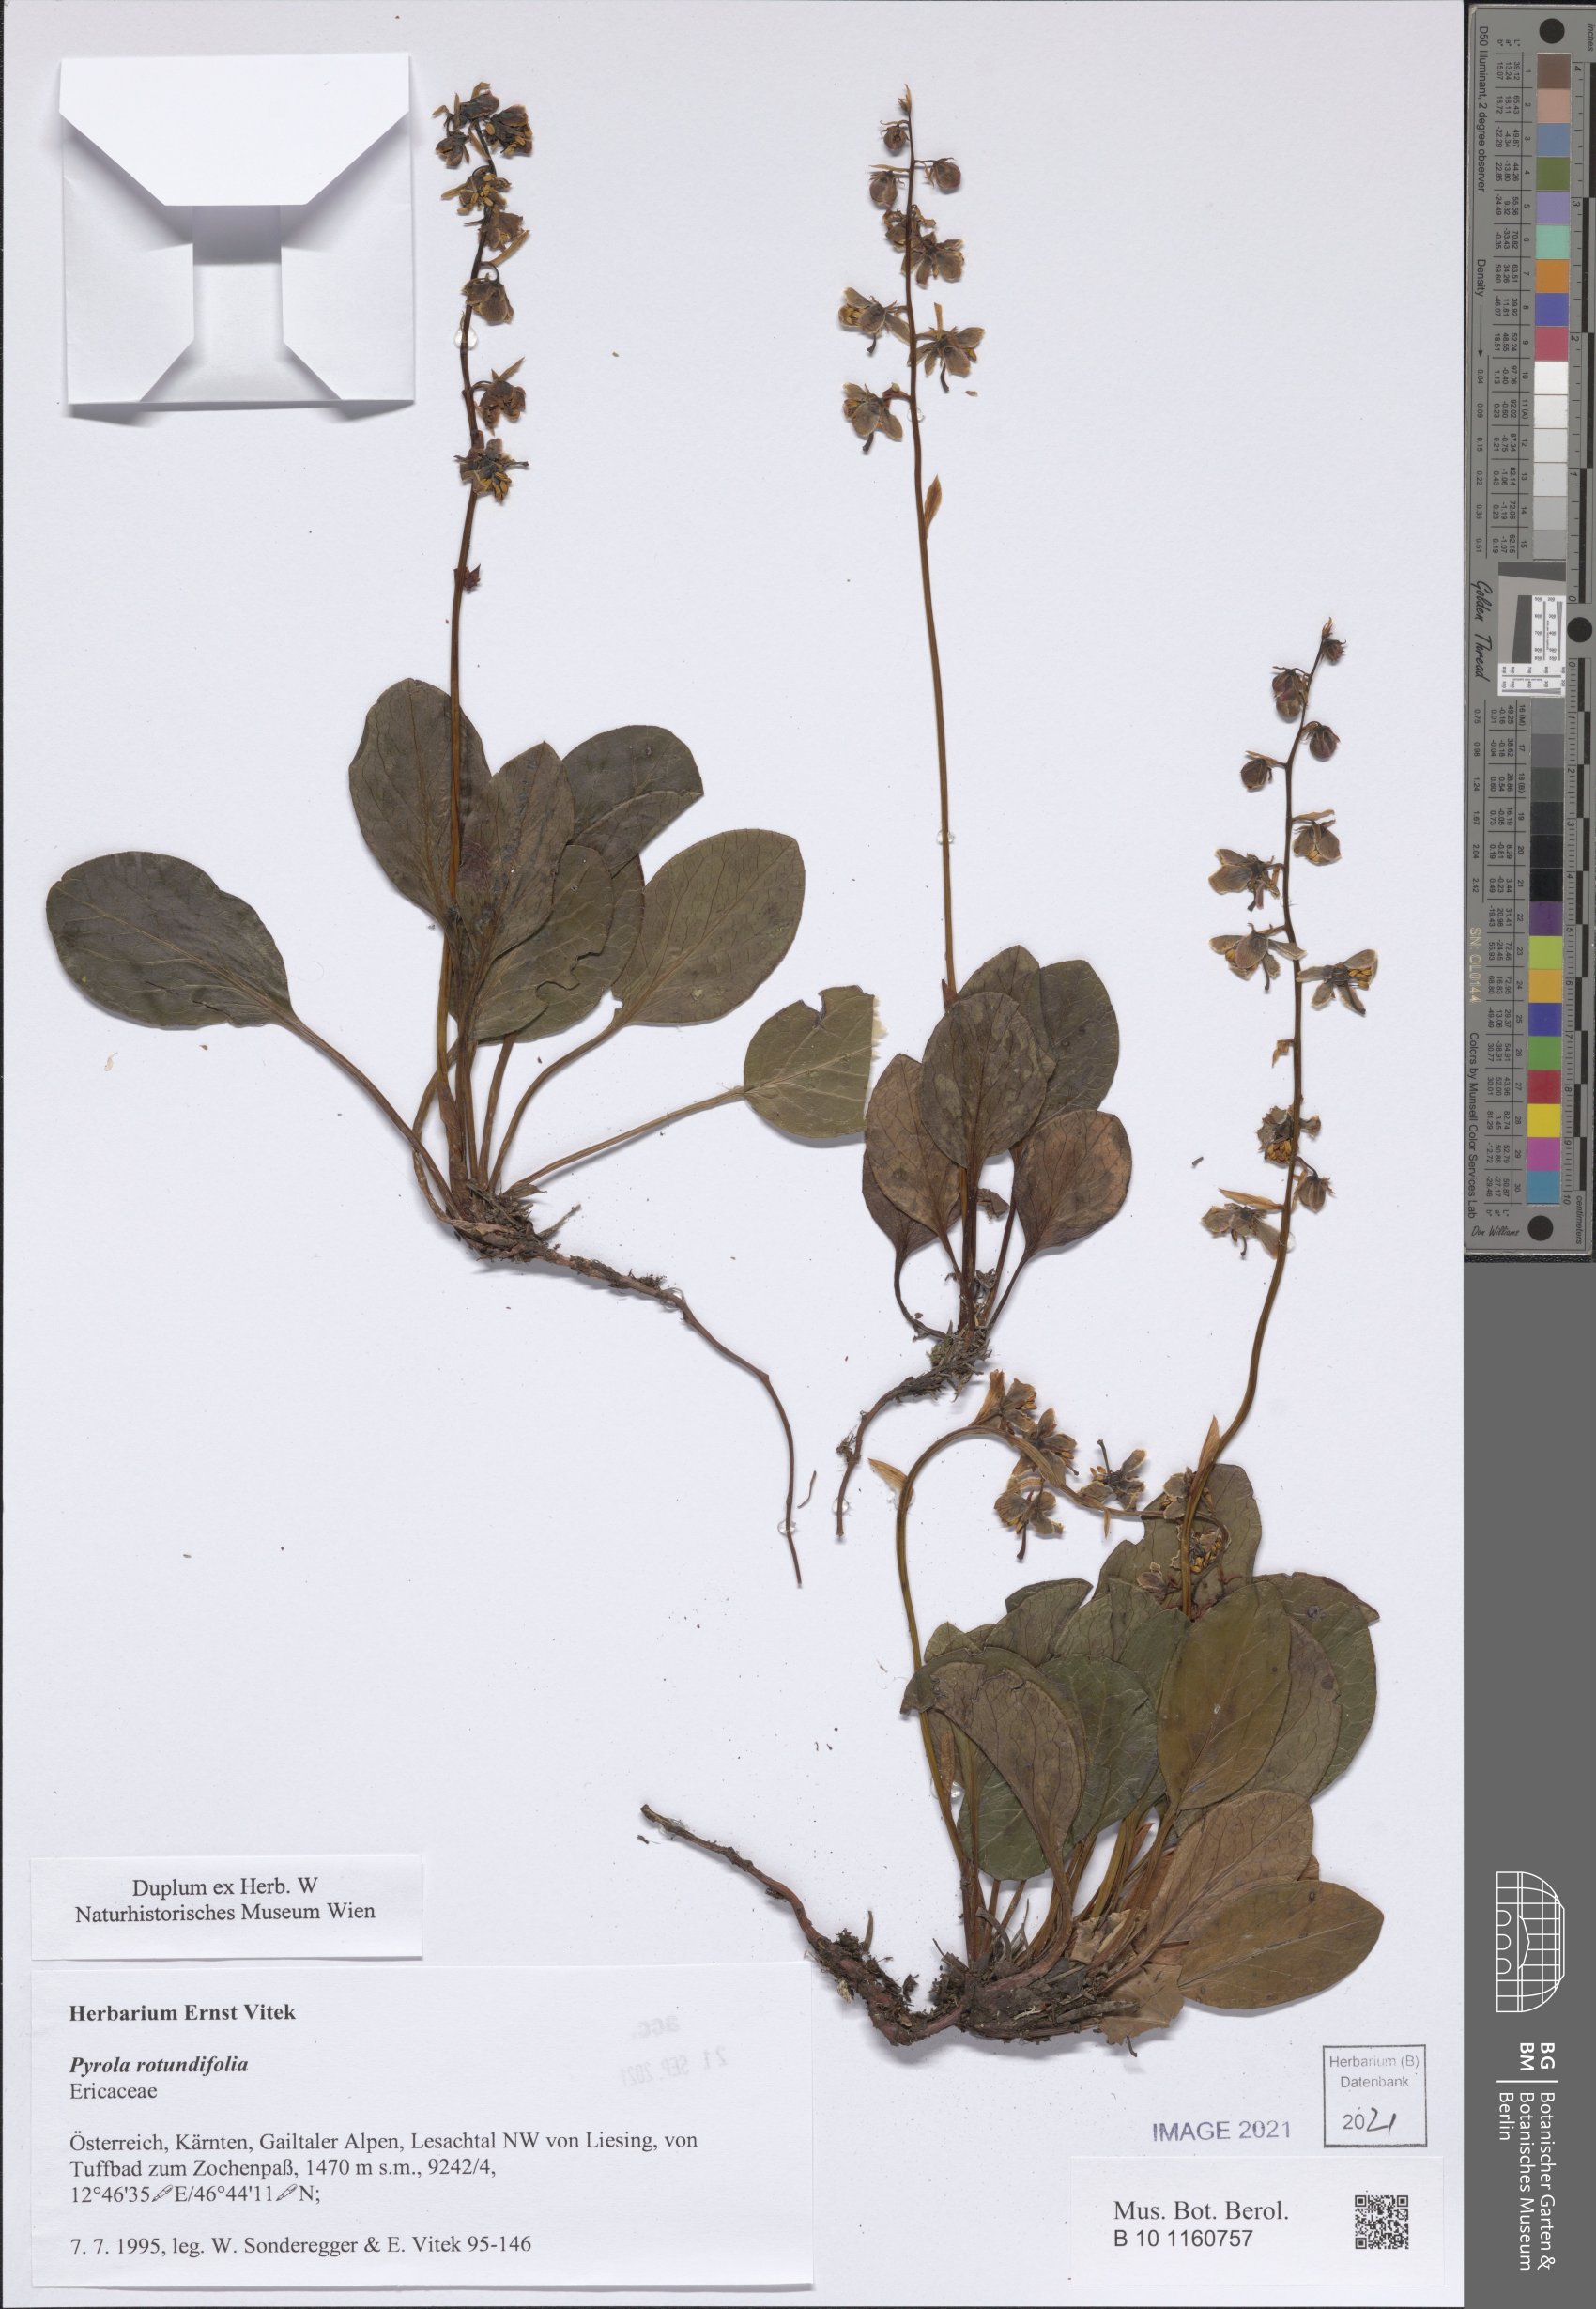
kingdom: Plantae
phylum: Tracheophyta
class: Magnoliopsida
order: Ericales
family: Ericaceae
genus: Pyrola
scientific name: Pyrola rotundifolia
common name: Round-leaved wintergreen
